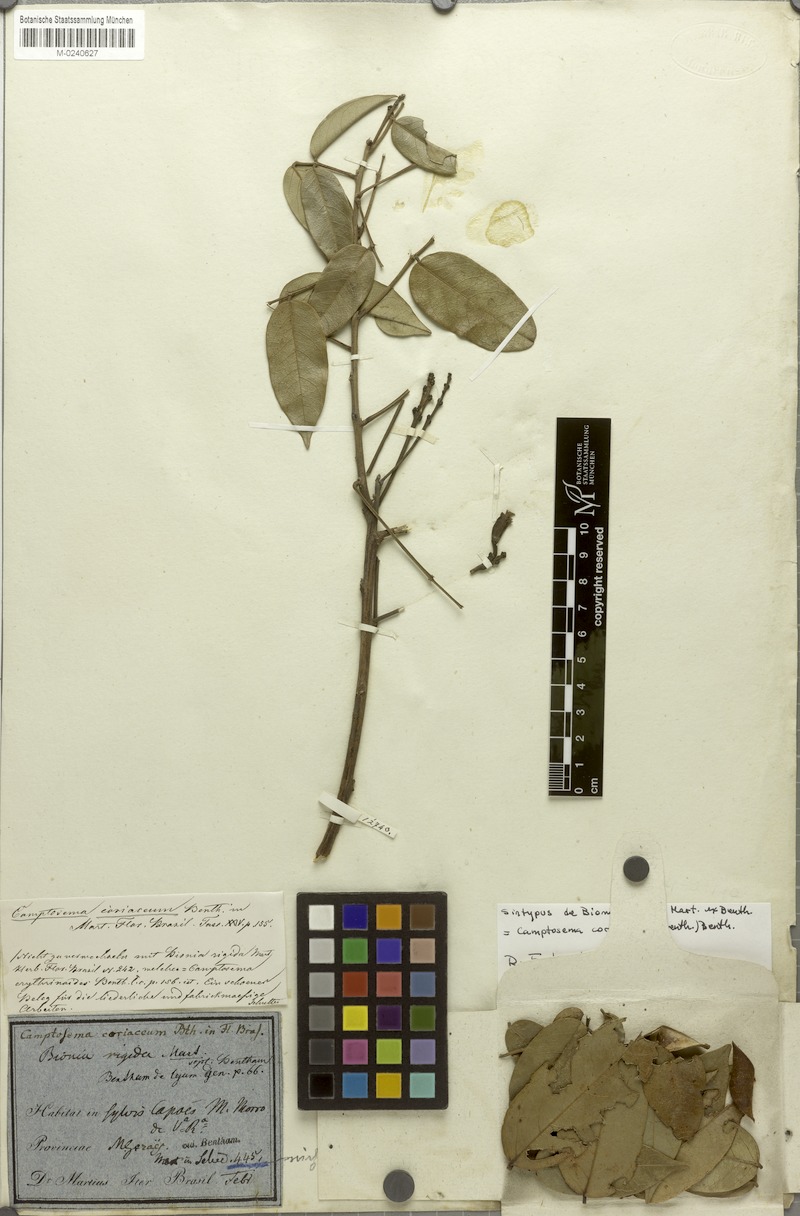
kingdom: Plantae
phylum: Tracheophyta
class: Magnoliopsida
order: Fabales
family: Fabaceae
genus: Camptosema
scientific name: Camptosema coriaceum
